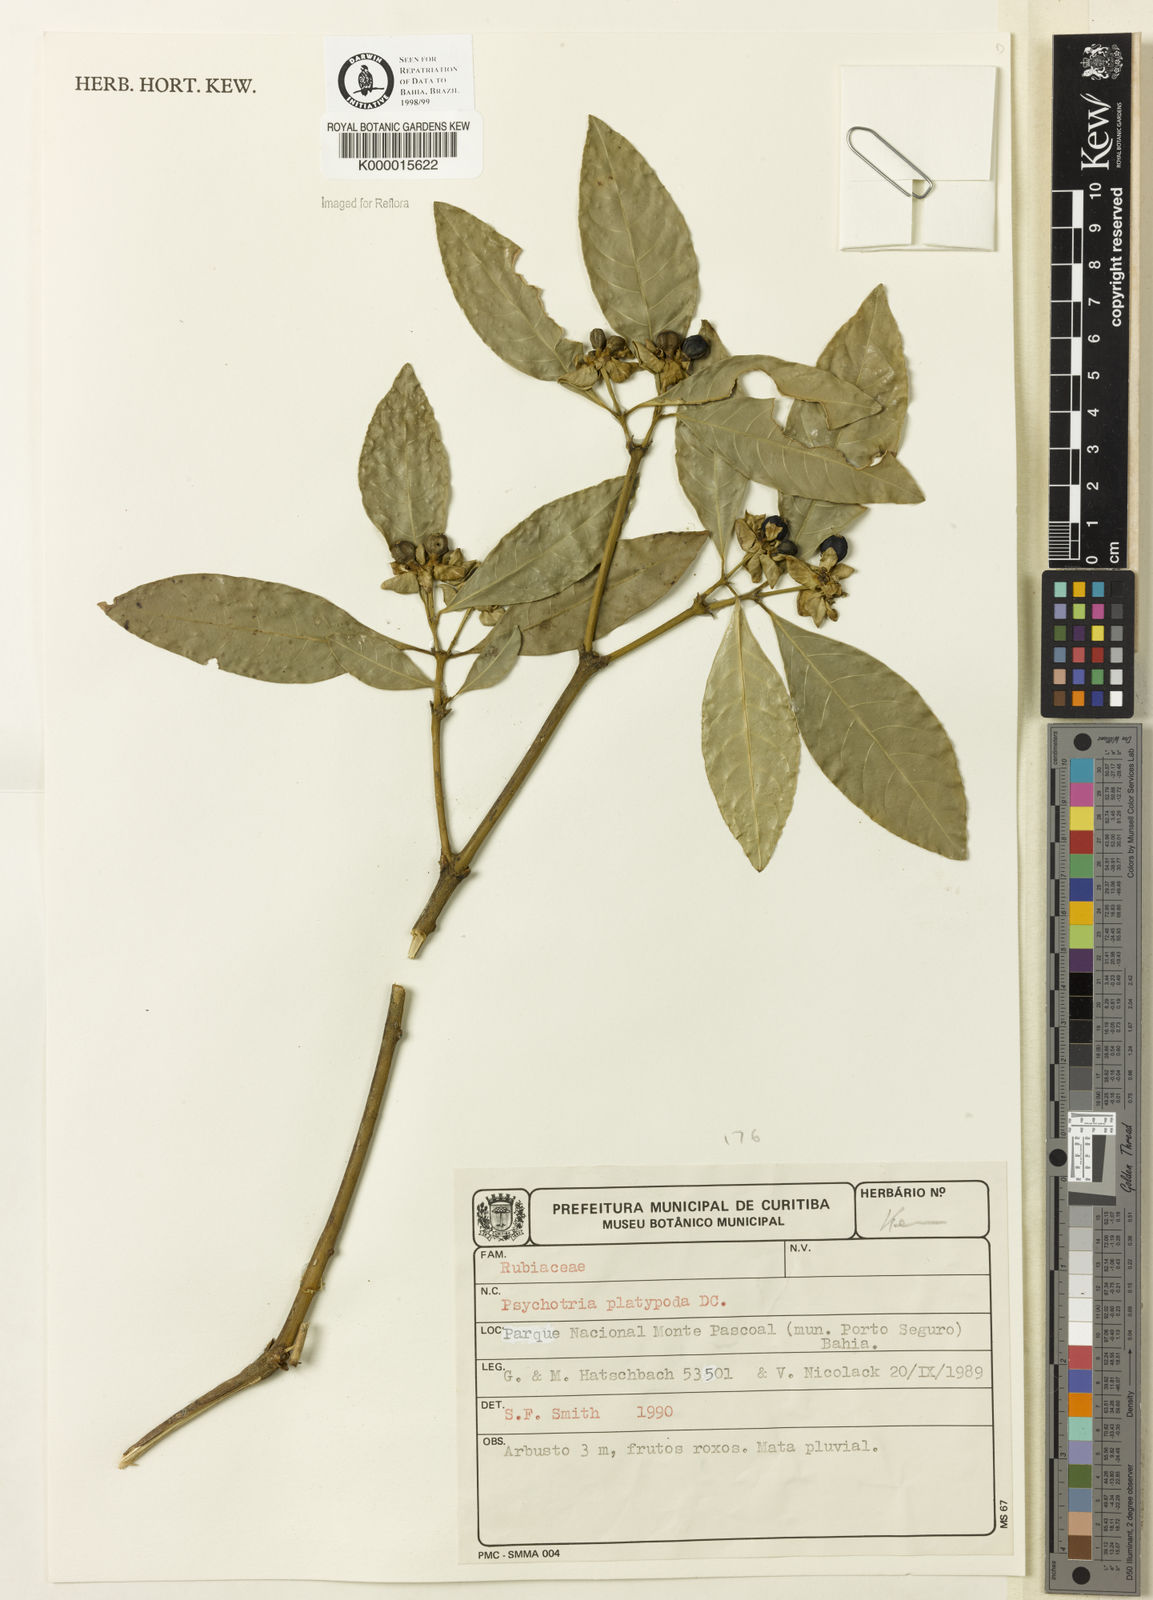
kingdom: Plantae
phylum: Tracheophyta
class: Magnoliopsida
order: Gentianales
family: Rubiaceae
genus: Palicourea
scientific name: Palicourea dichotoma
